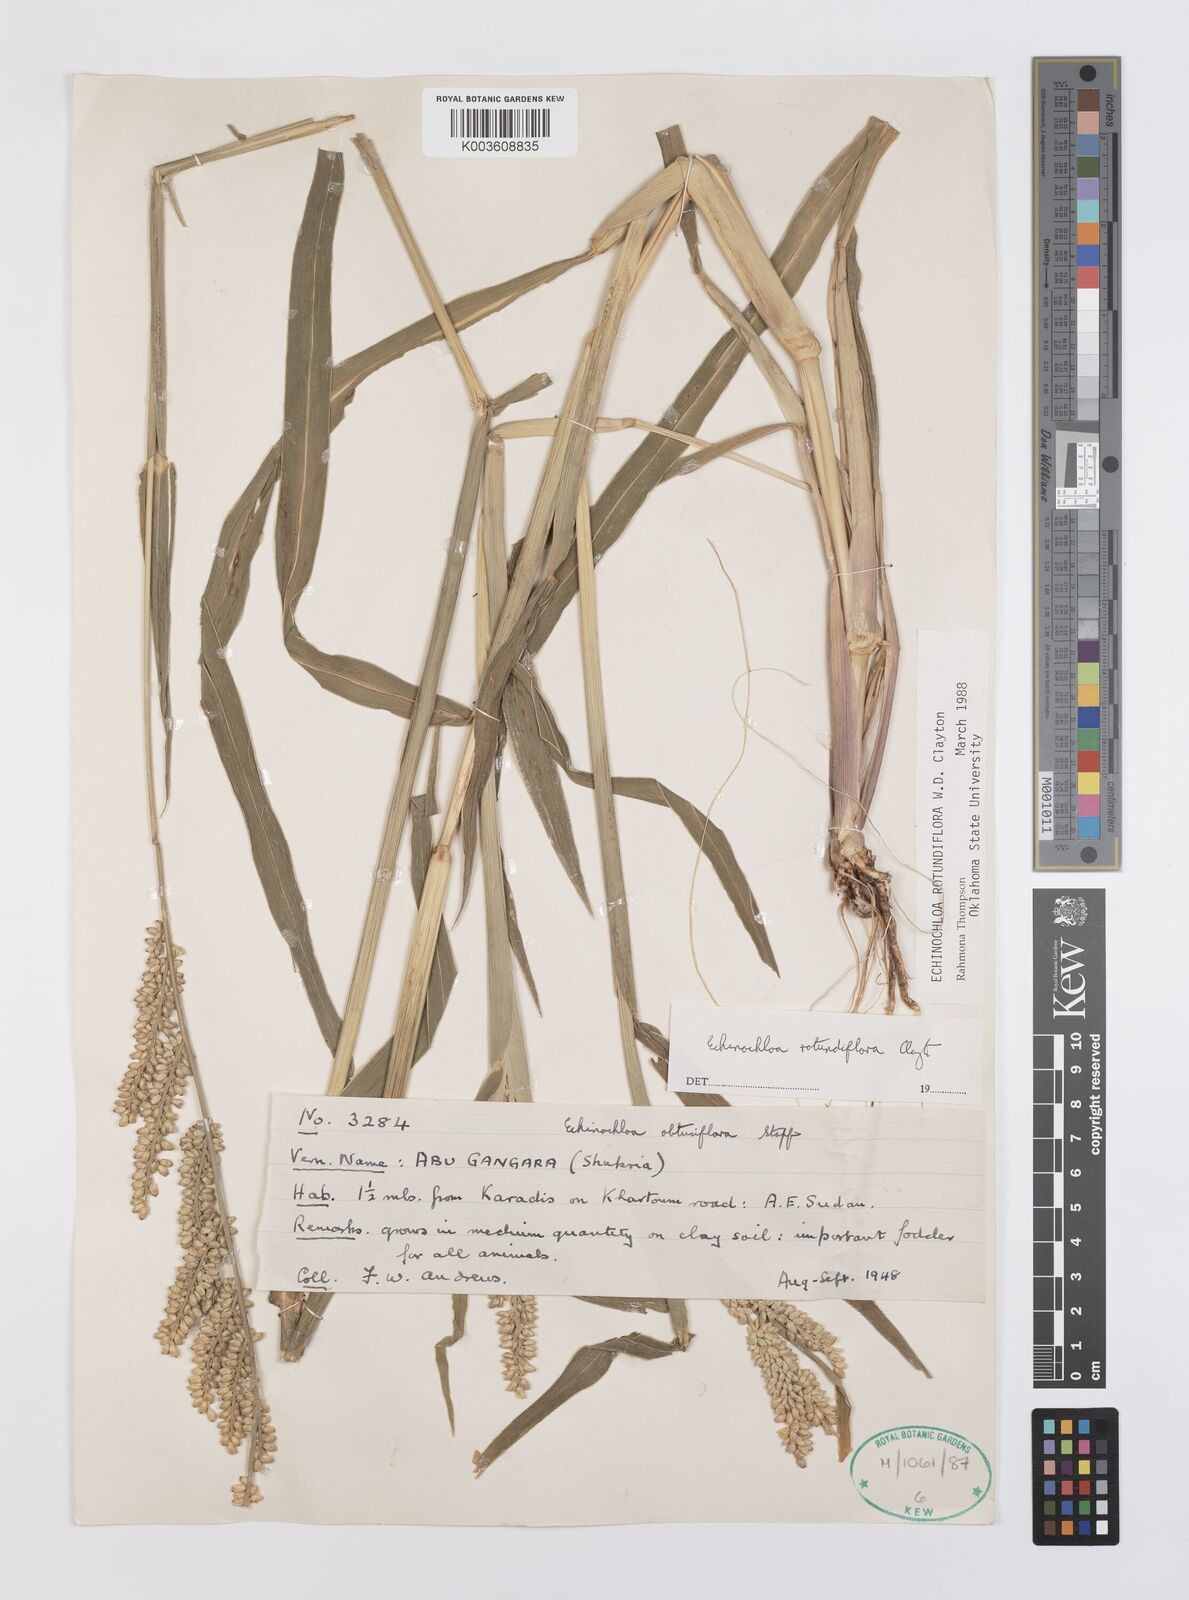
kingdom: Plantae
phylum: Tracheophyta
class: Liliopsida
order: Poales
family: Poaceae
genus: Echinochloa
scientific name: Echinochloa rotundiflora
